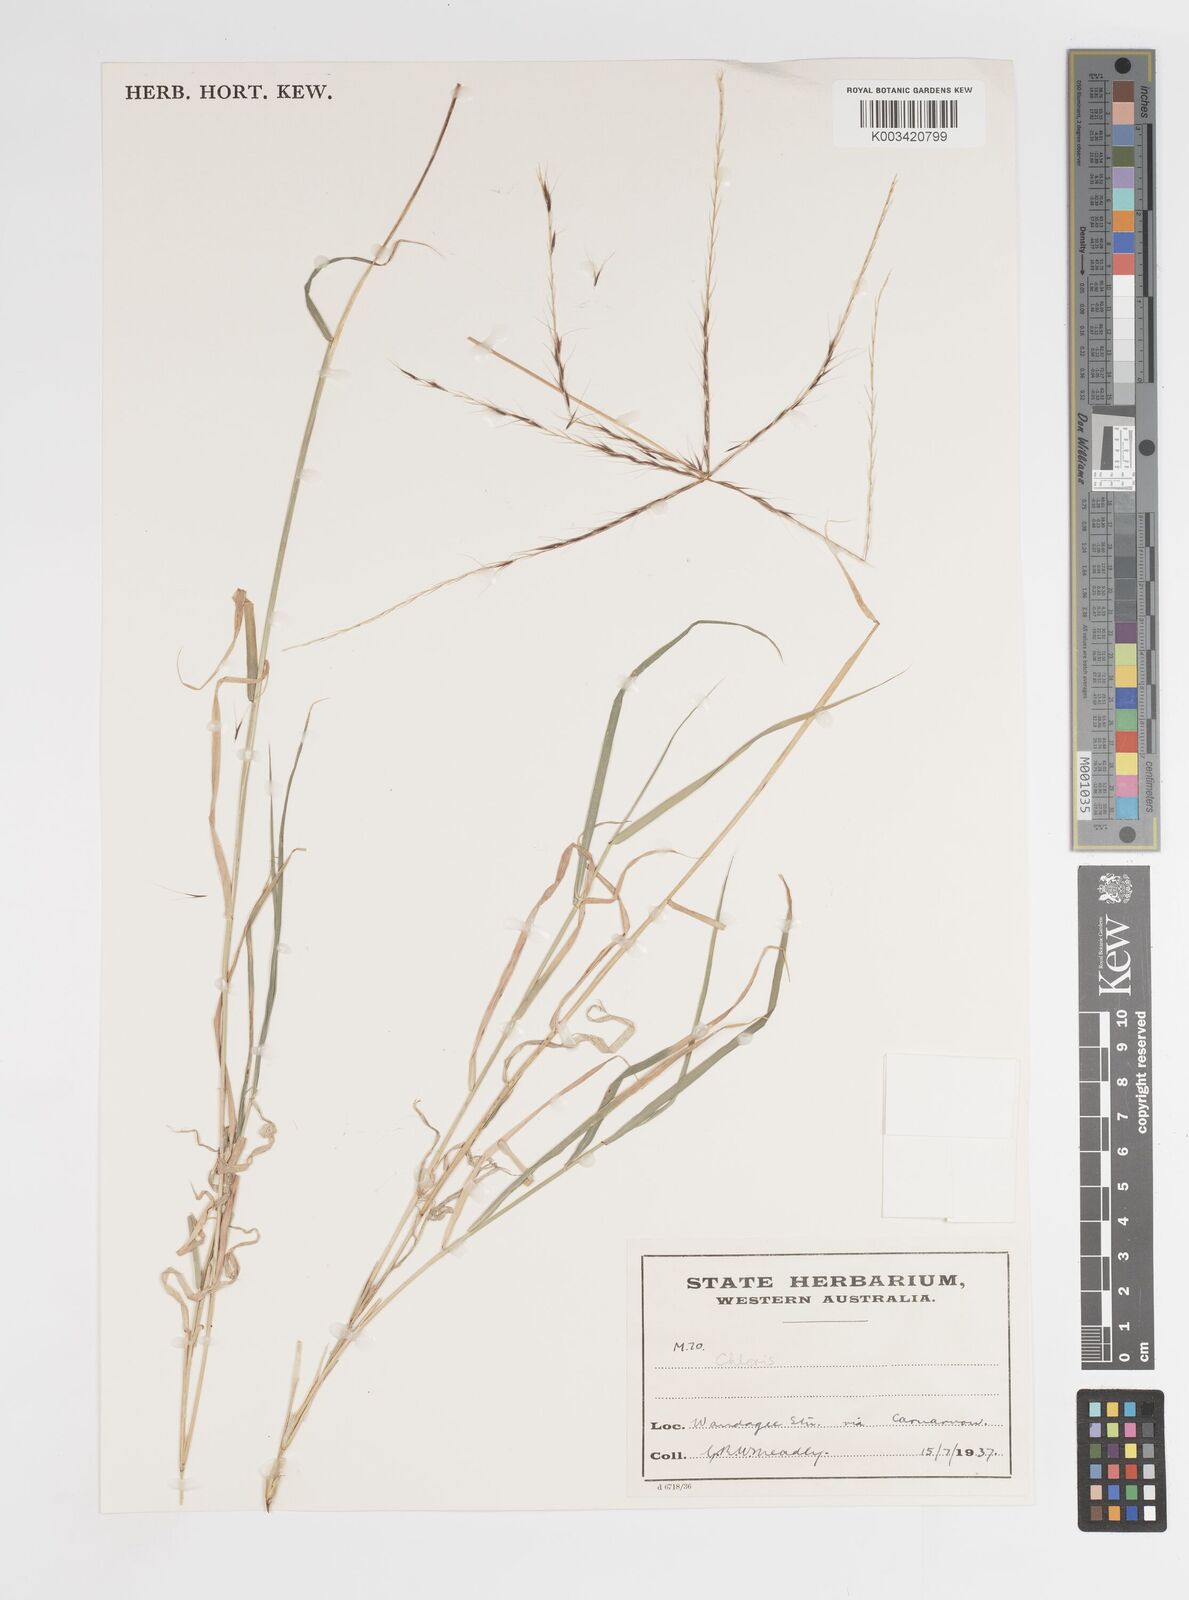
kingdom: Plantae
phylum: Tracheophyta
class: Liliopsida
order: Poales
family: Poaceae
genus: Enteropogon
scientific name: Enteropogon acicularis
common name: Curly windmill grass
